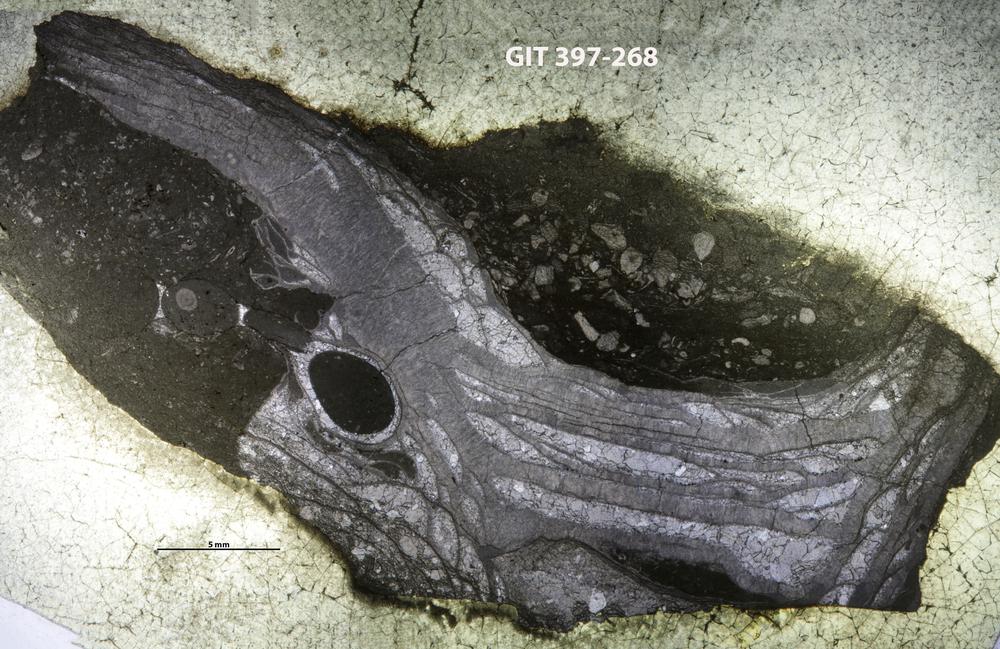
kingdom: Animalia
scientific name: Animalia
